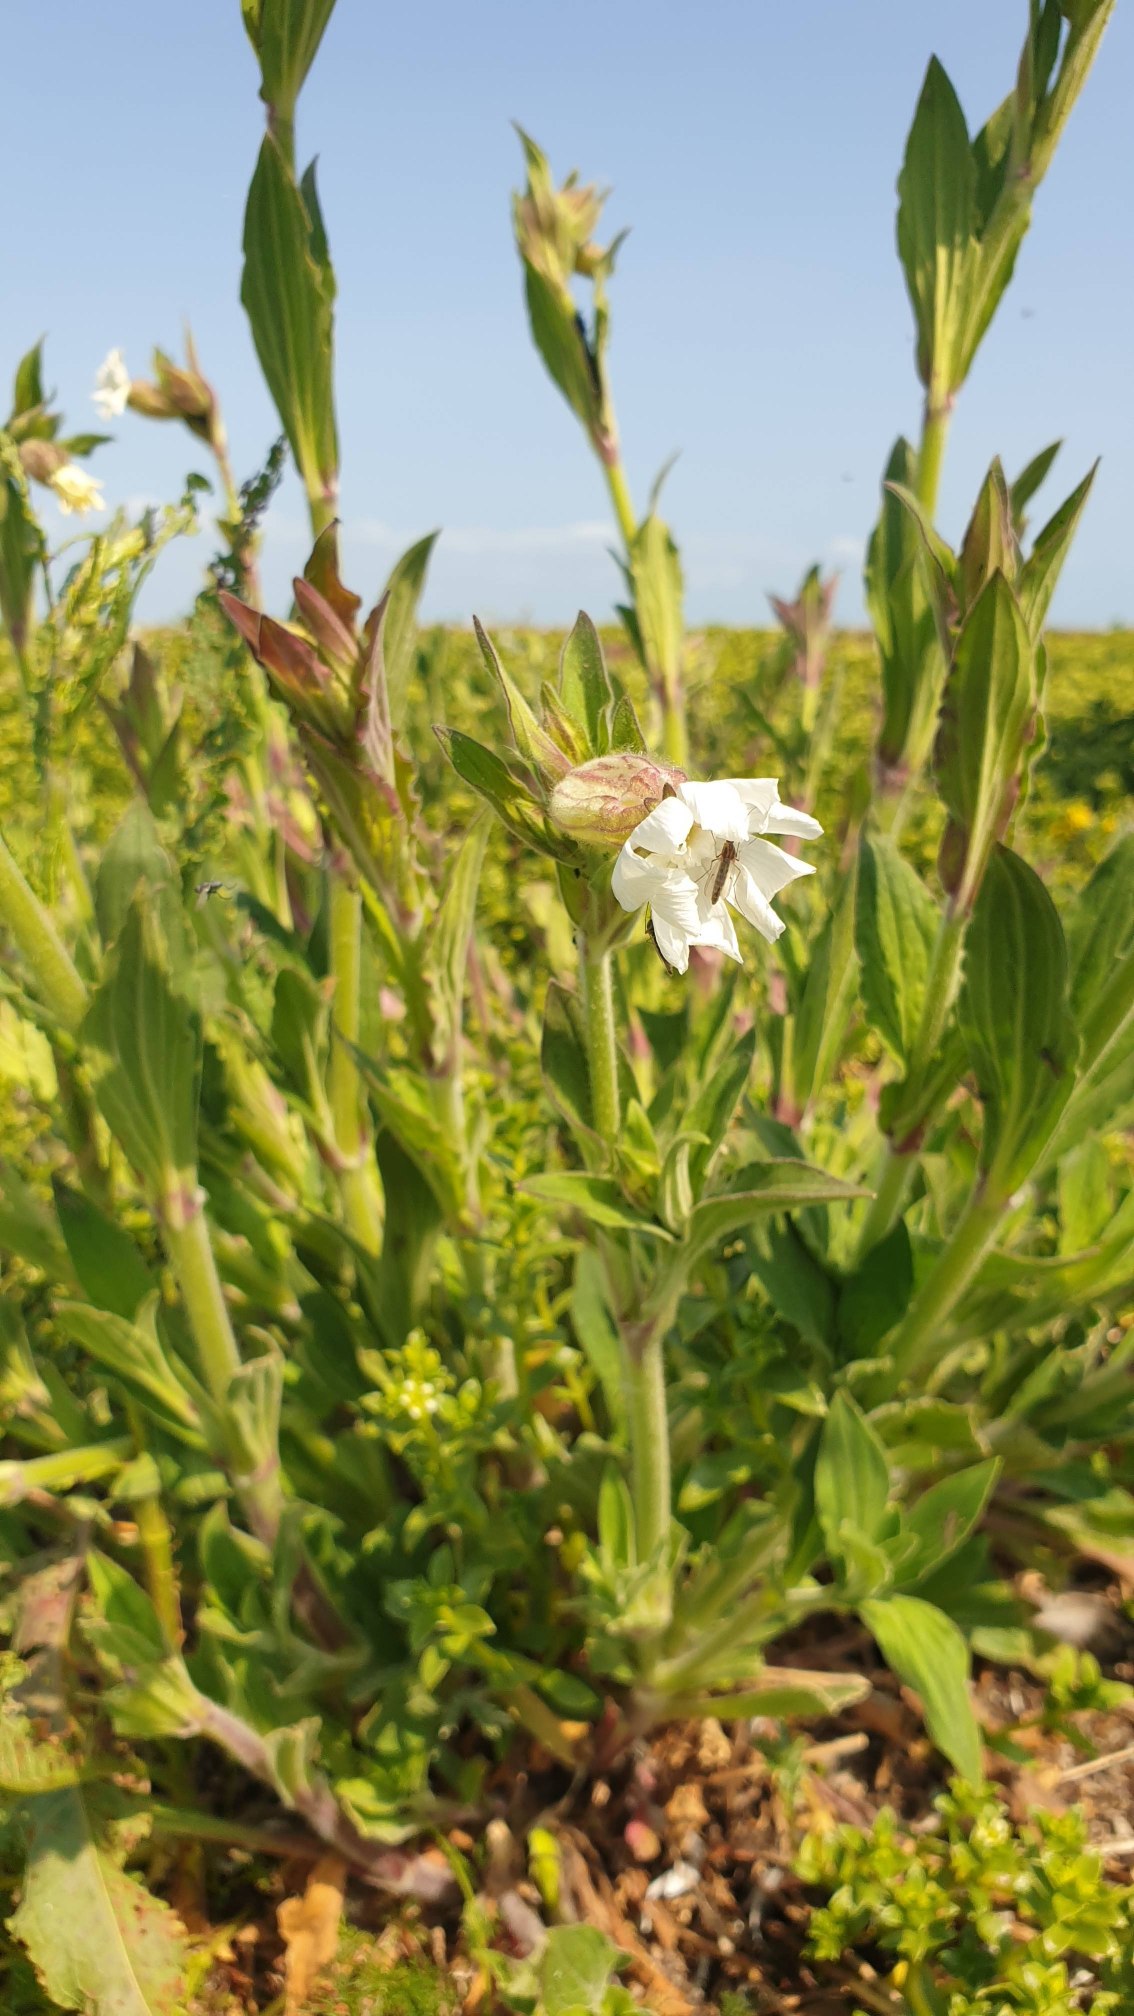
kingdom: Plantae
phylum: Tracheophyta
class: Magnoliopsida
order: Caryophyllales
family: Caryophyllaceae
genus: Silene
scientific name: Silene latifolia
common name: Aftenpragtstjerne
